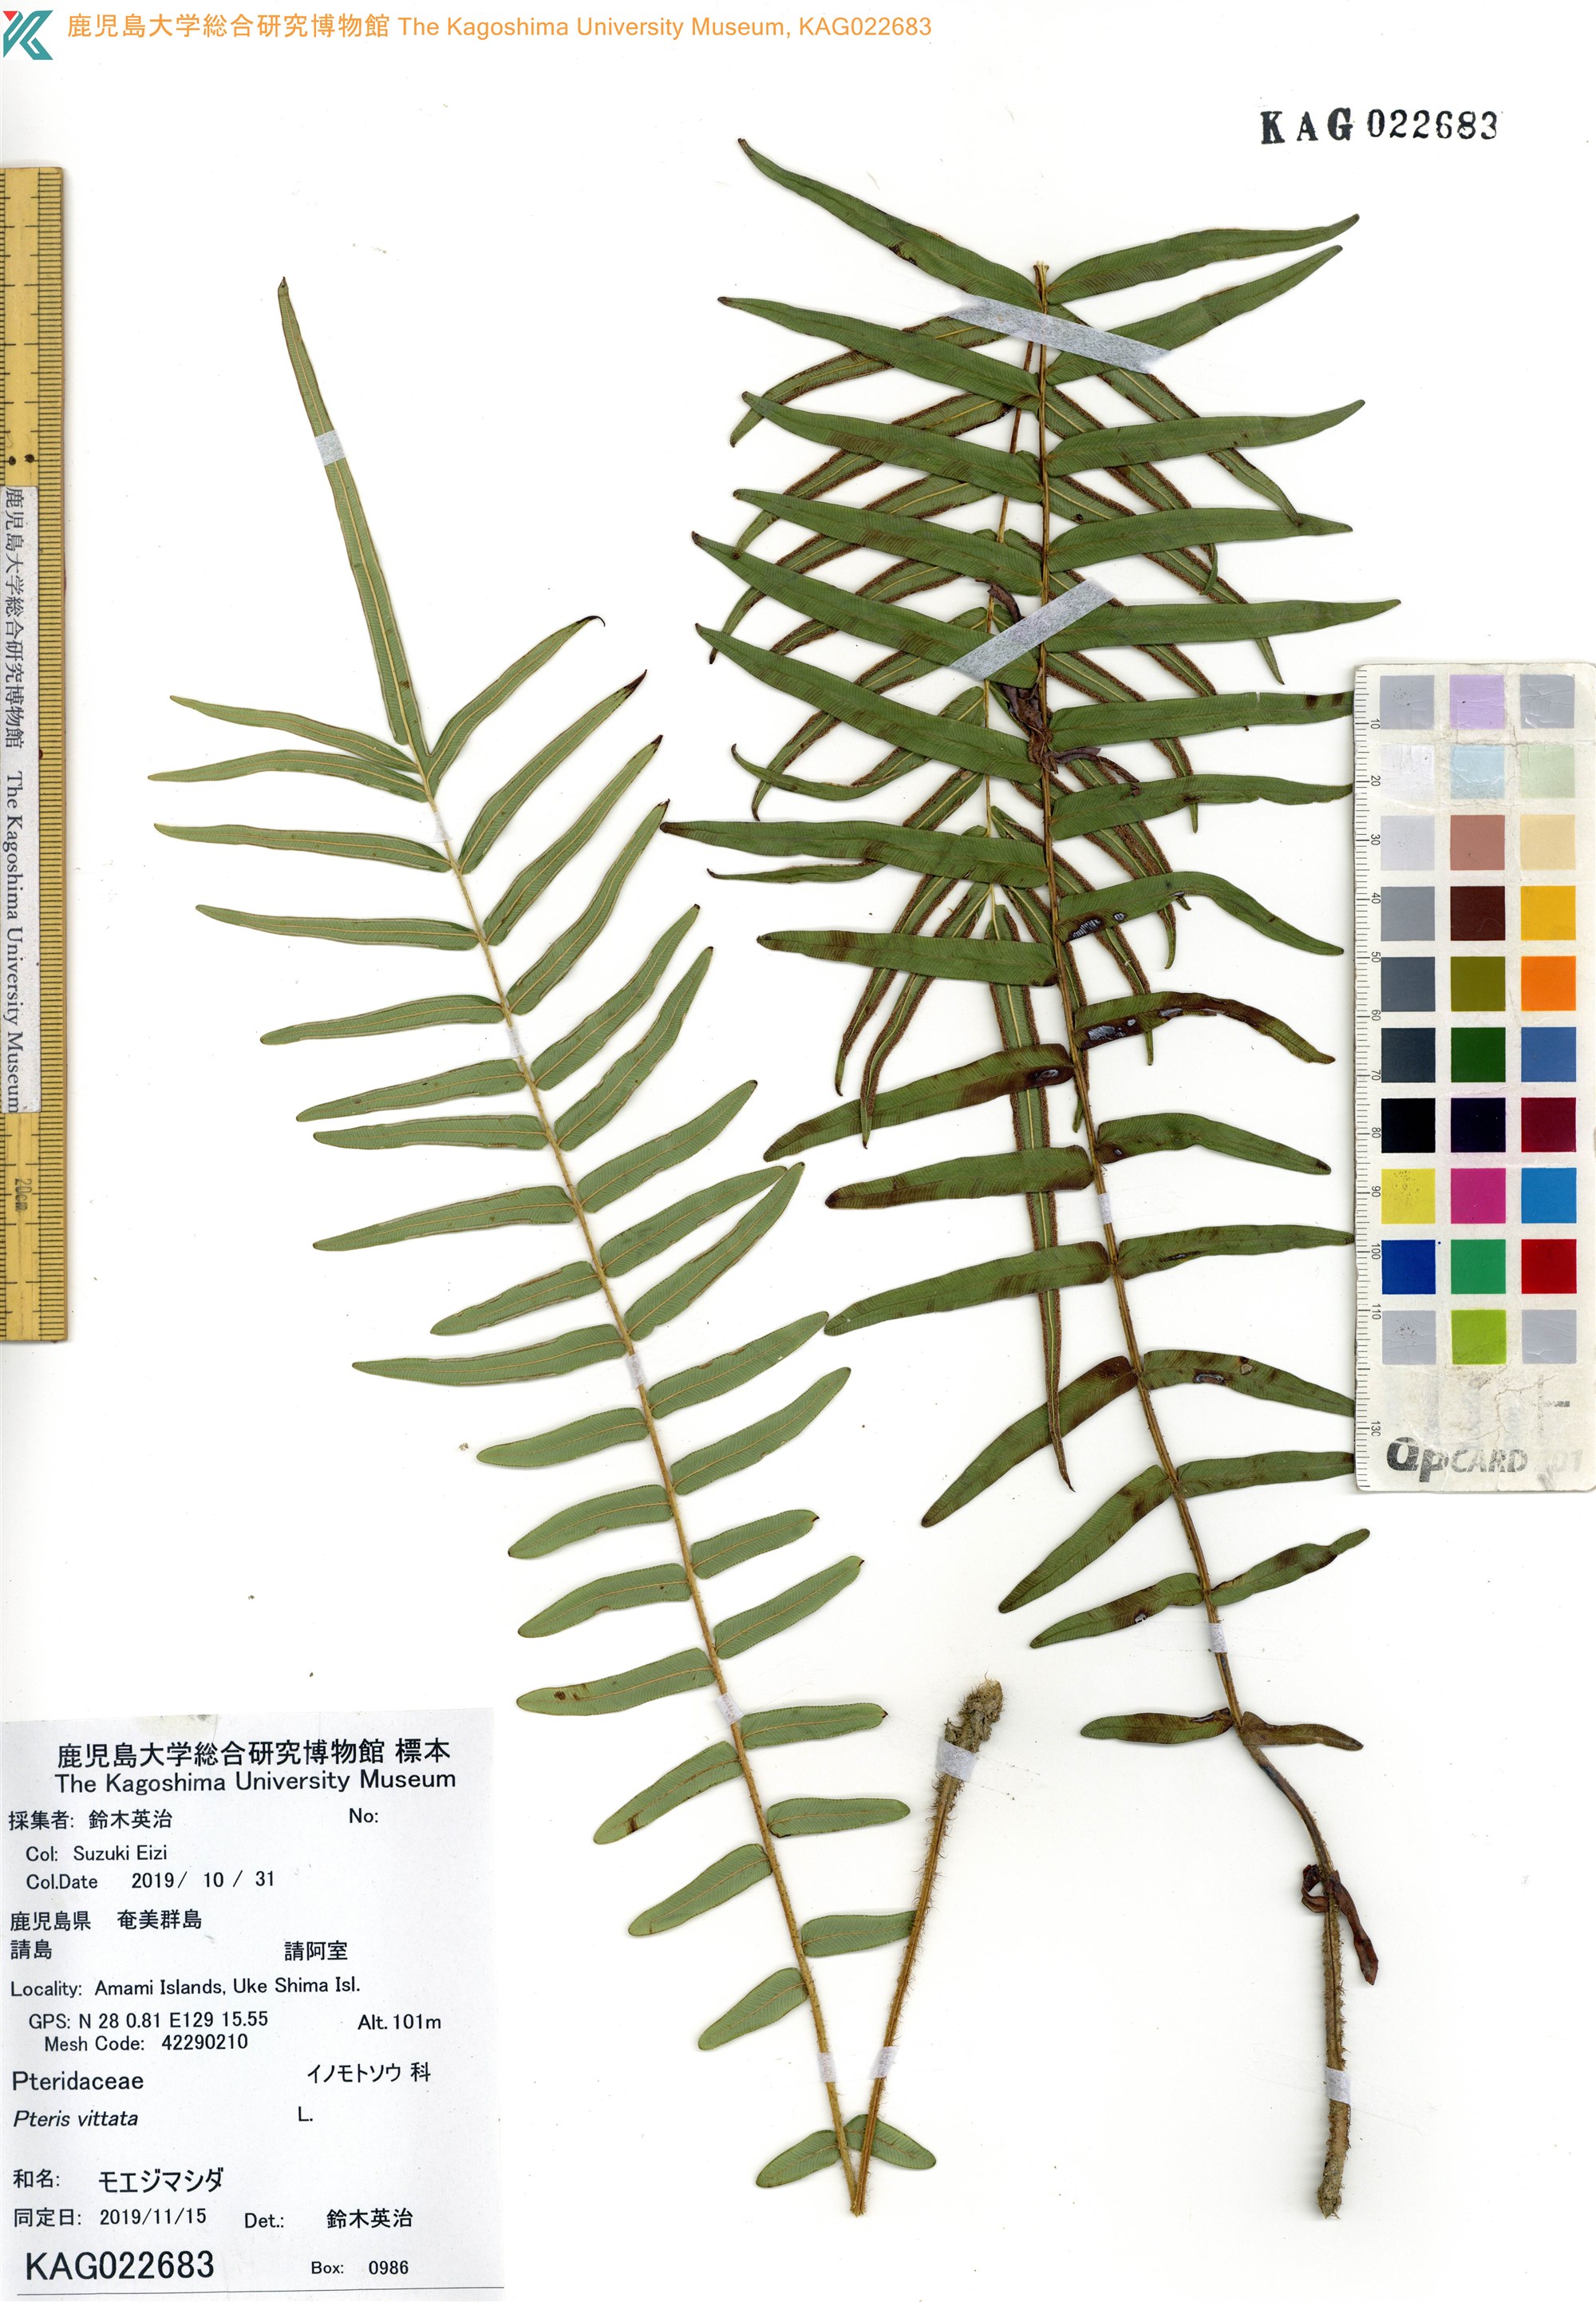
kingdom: Plantae
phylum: Tracheophyta
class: Polypodiopsida
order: Polypodiales
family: Pteridaceae
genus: Pteris
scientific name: Pteris vittata
